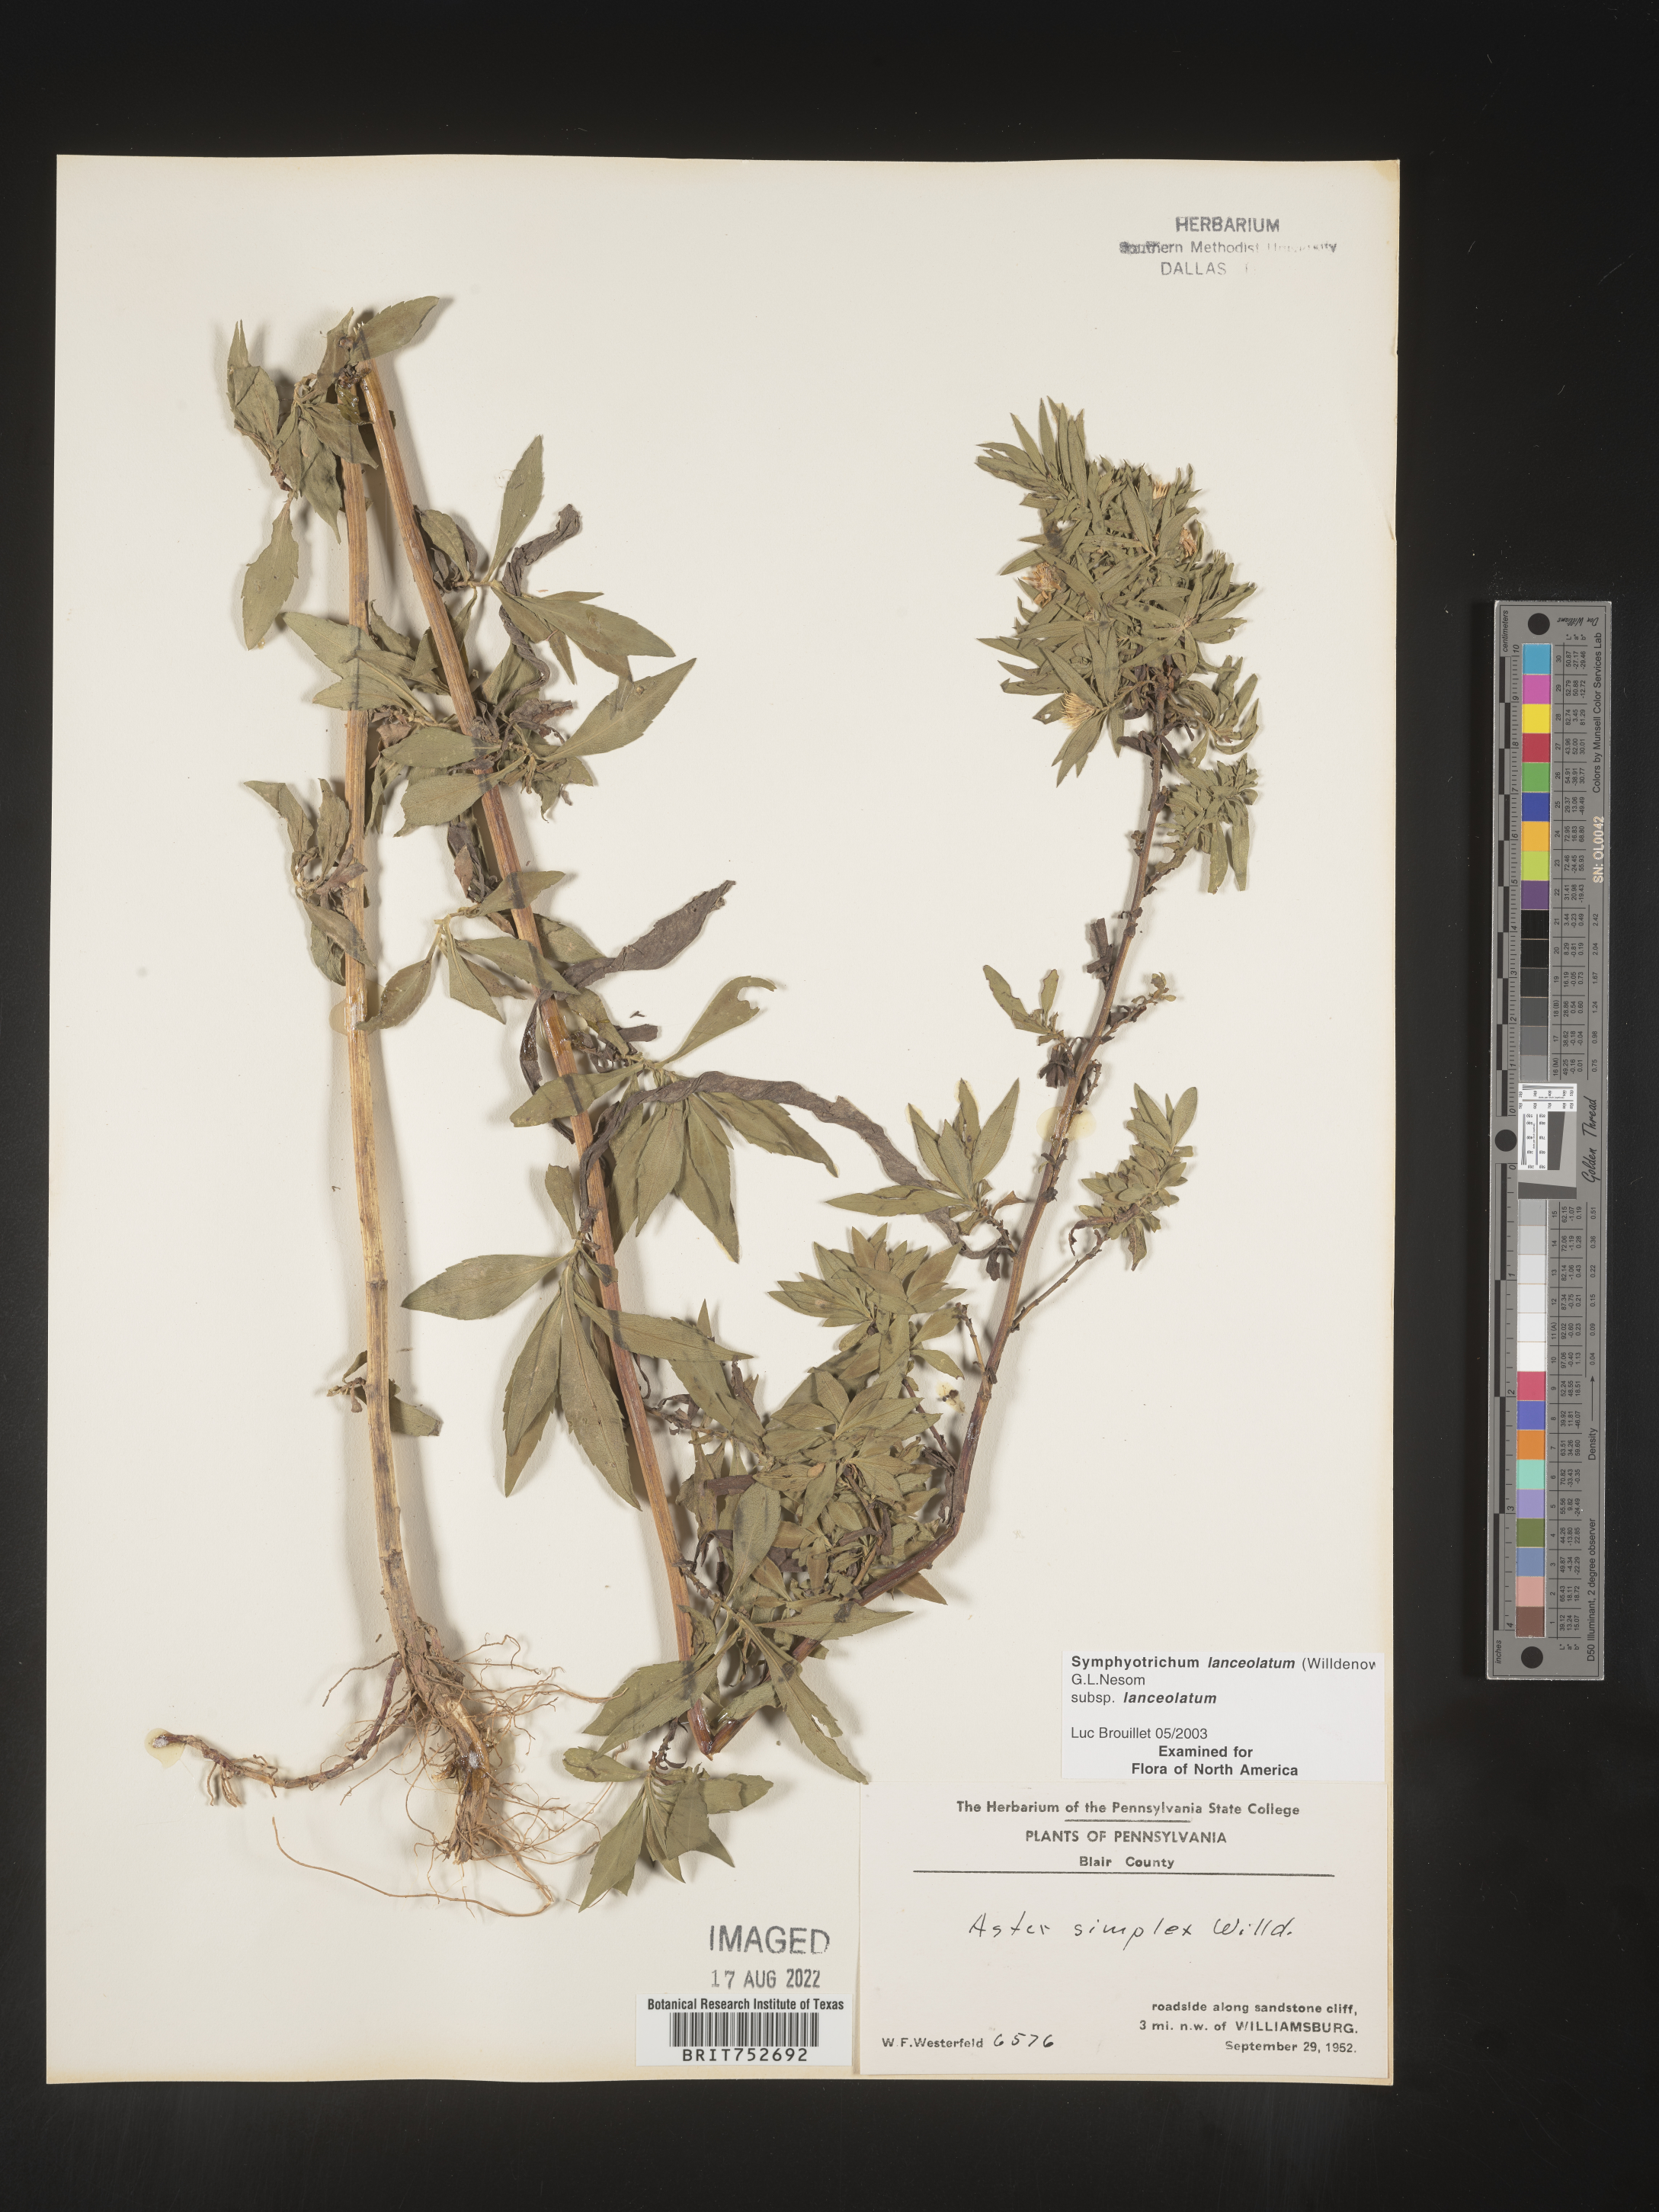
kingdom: Plantae
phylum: Tracheophyta
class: Magnoliopsida
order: Asterales
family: Asteraceae
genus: Symphyotrichum
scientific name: Symphyotrichum lanceolatum
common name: Panicled aster
